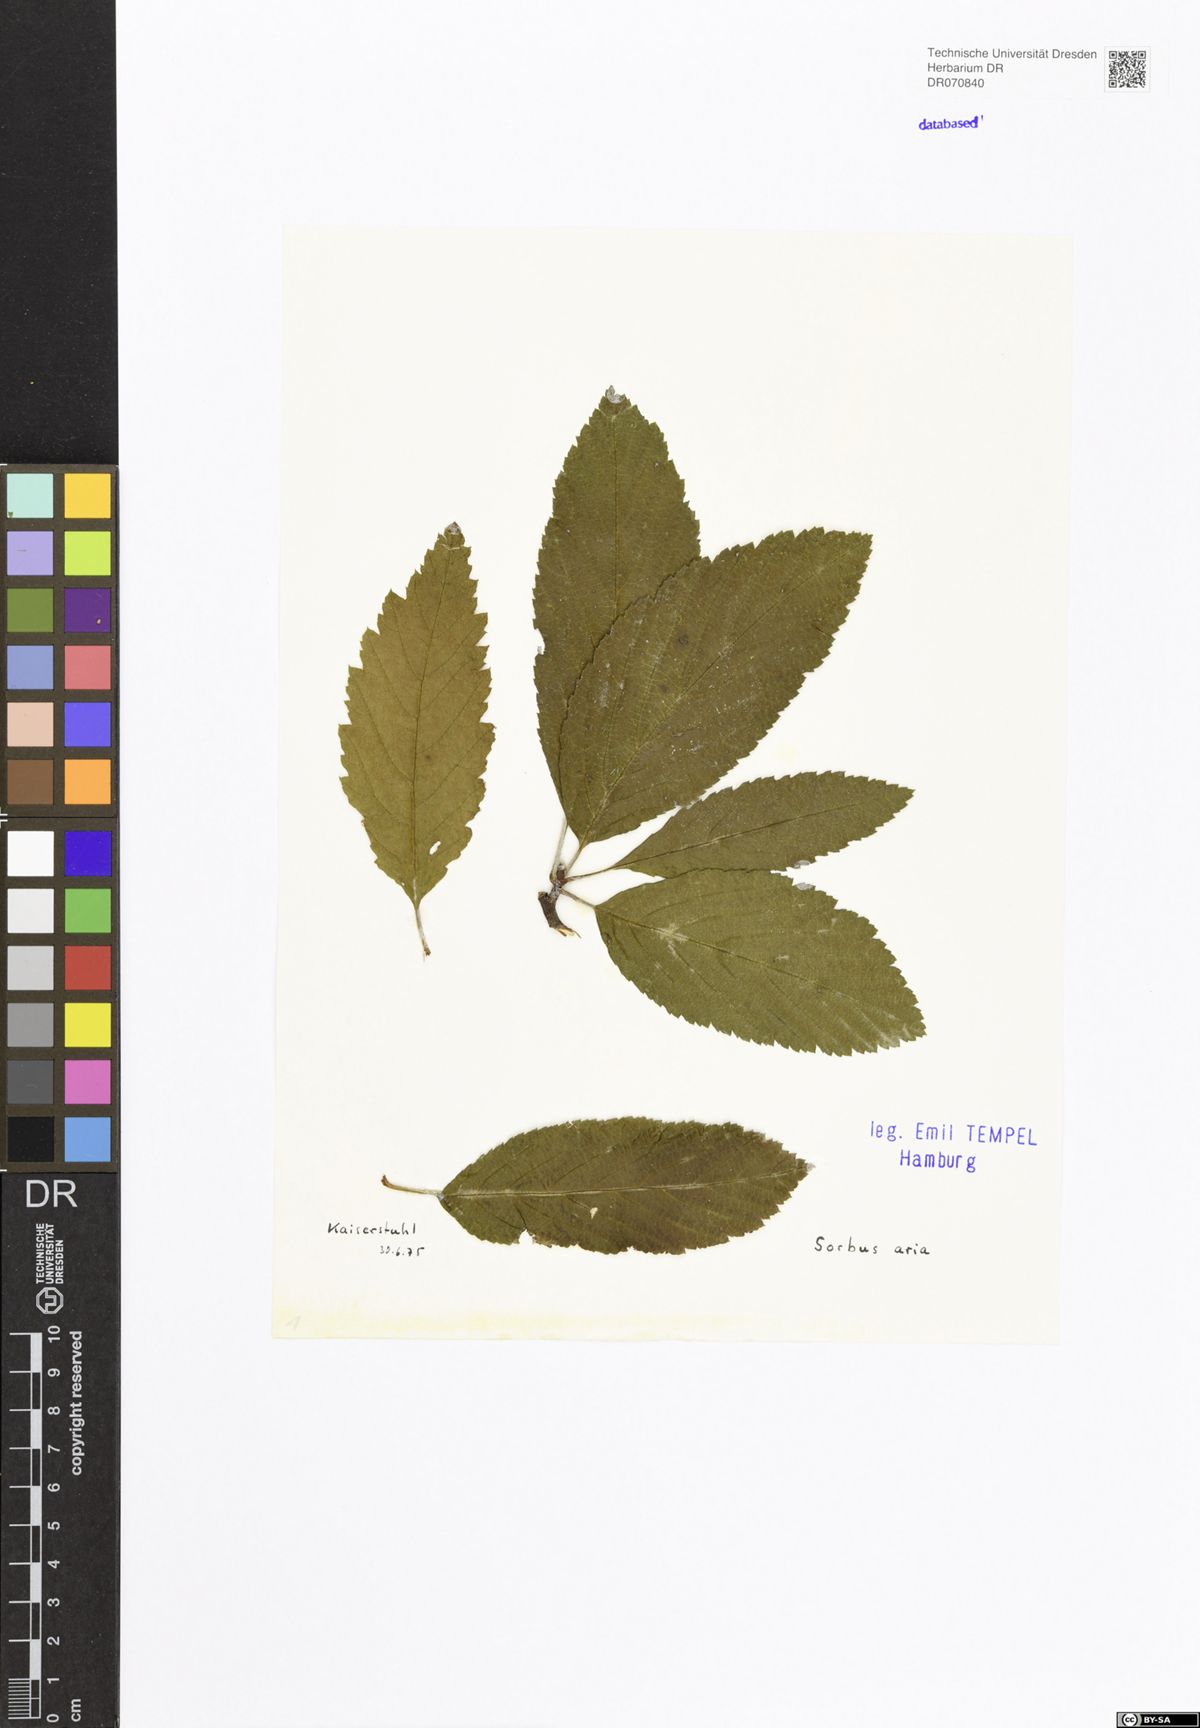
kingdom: Plantae
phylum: Tracheophyta
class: Magnoliopsida
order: Rosales
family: Rosaceae
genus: Aria
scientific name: Aria edulis
